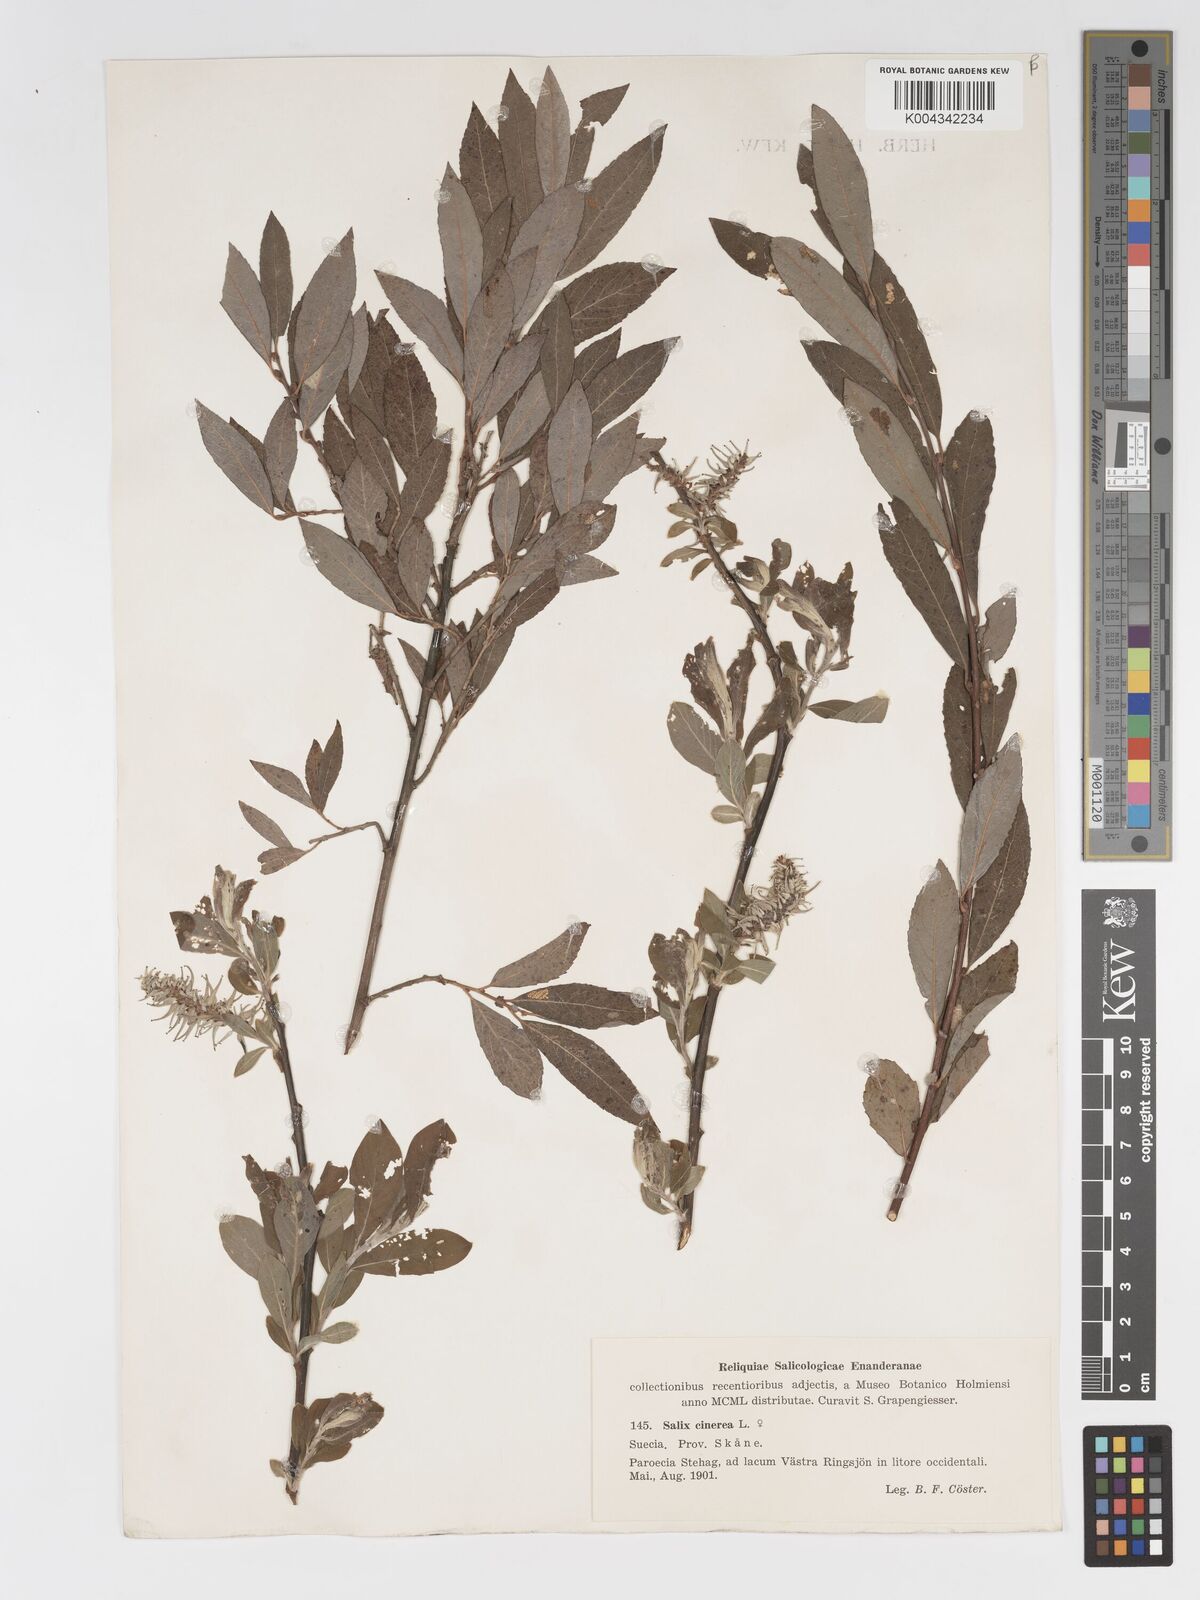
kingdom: Plantae
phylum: Tracheophyta
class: Magnoliopsida
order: Malpighiales
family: Salicaceae
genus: Salix
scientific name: Salix
